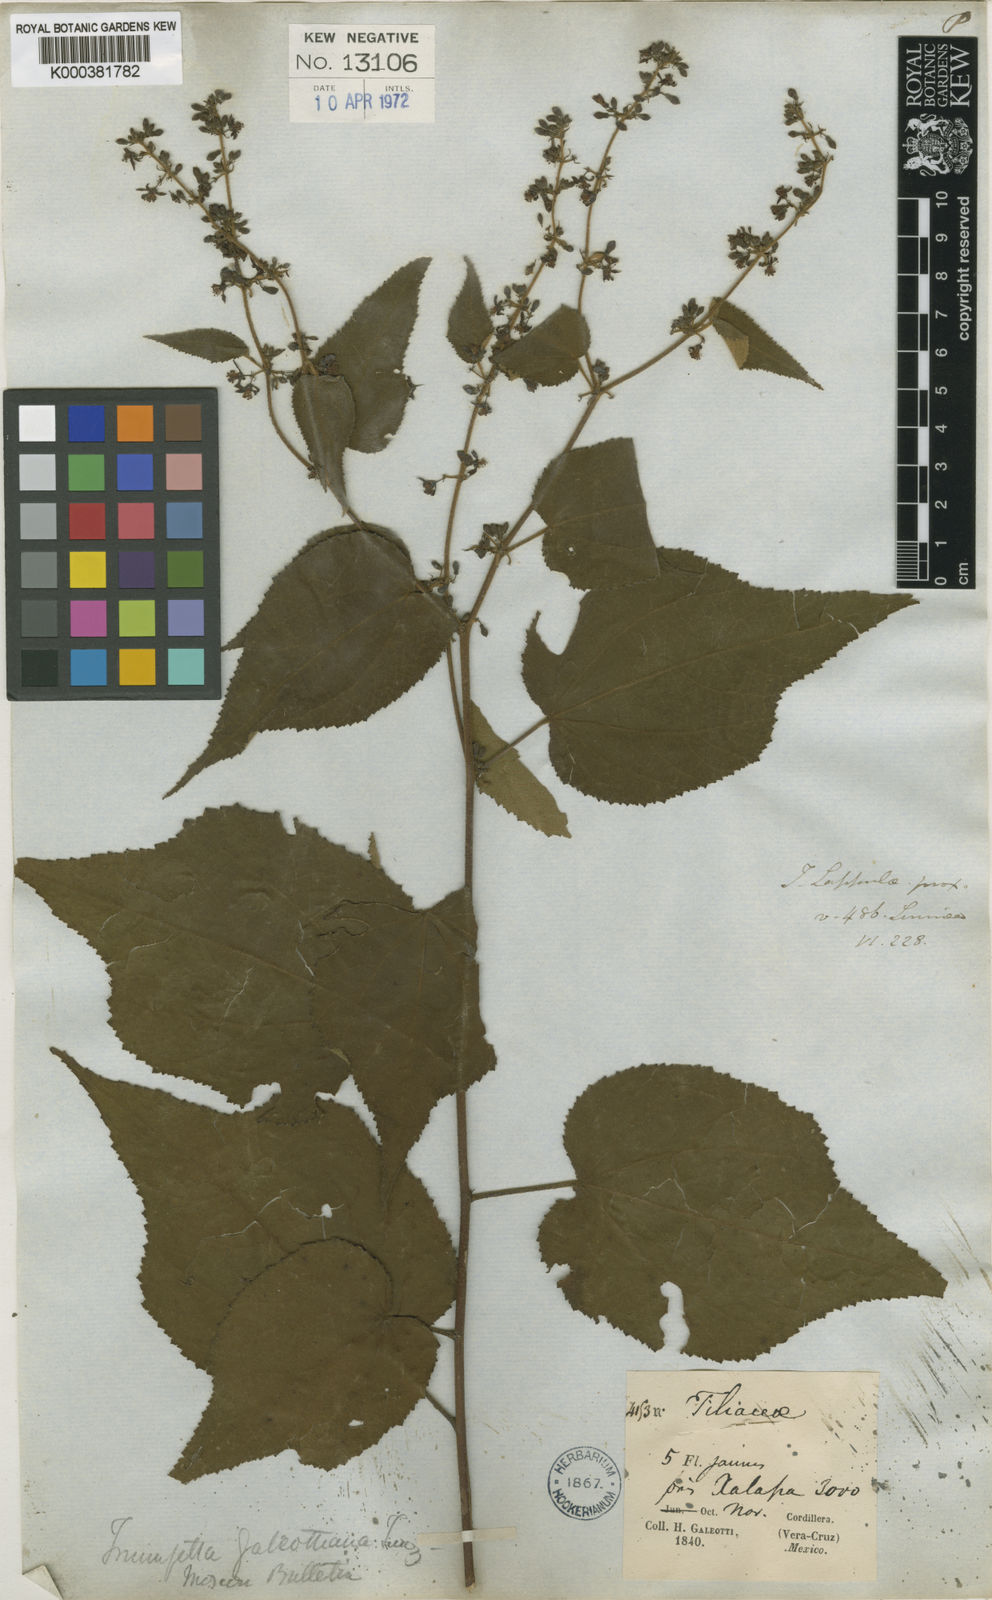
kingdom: Plantae
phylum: Tracheophyta
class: Magnoliopsida
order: Malvales
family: Malvaceae
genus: Triumfetta
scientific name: Triumfetta galeottiana
